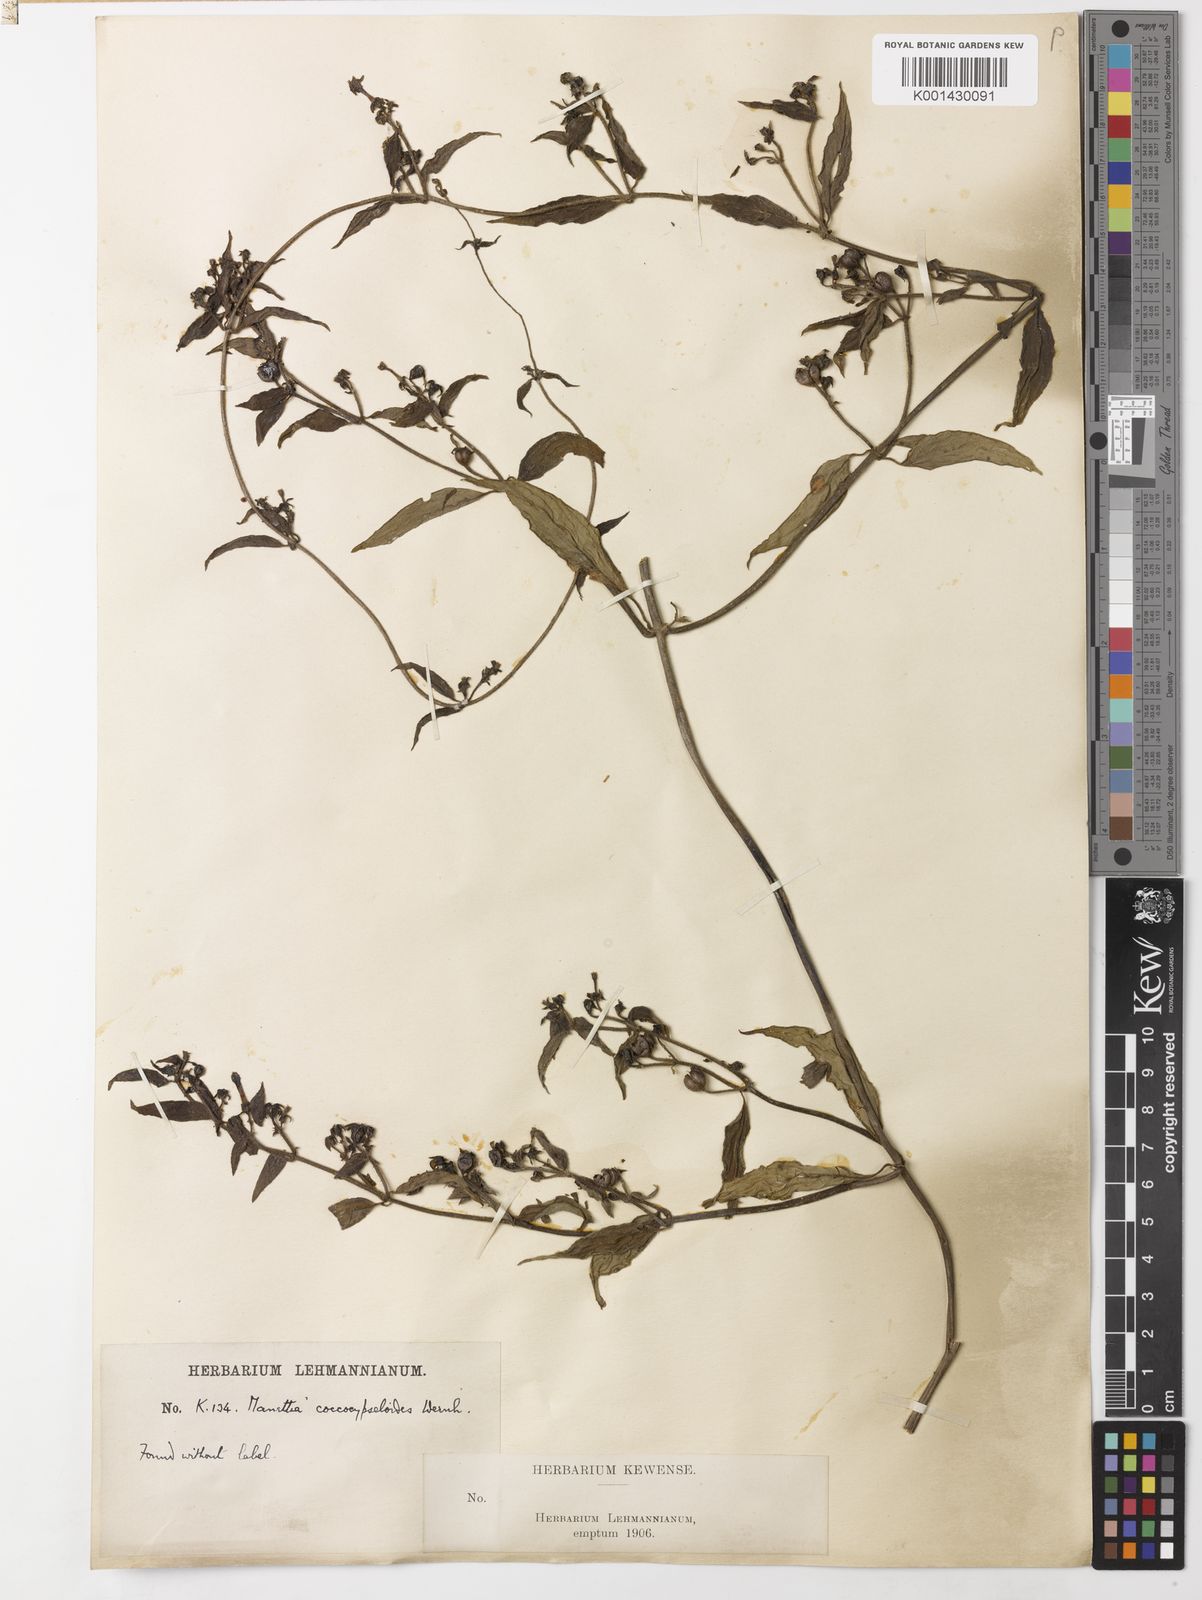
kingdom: Plantae
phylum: Tracheophyta
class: Magnoliopsida
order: Gentianales
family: Rubiaceae
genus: Manettia
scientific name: Manettia coccocypseloides
